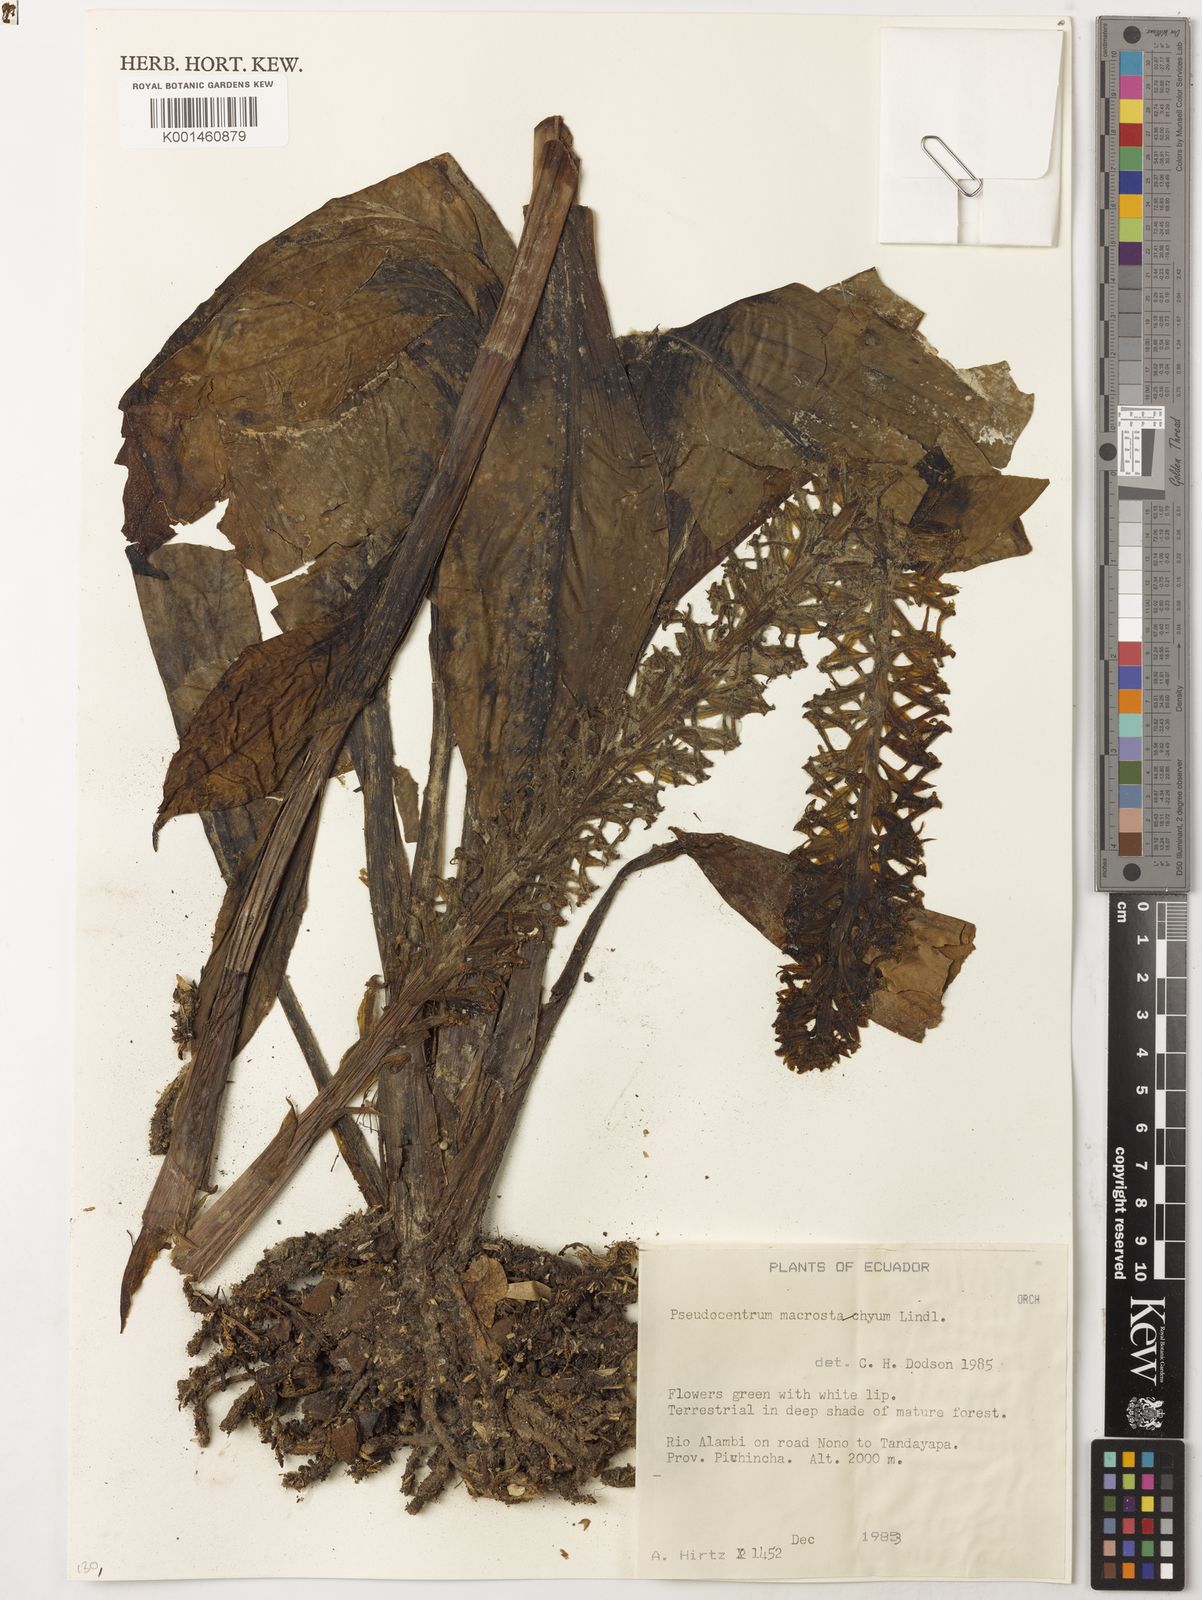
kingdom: Plantae
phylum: Tracheophyta
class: Liliopsida
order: Asparagales
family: Orchidaceae
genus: Pseudocentrum
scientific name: Pseudocentrum macrostachyum
